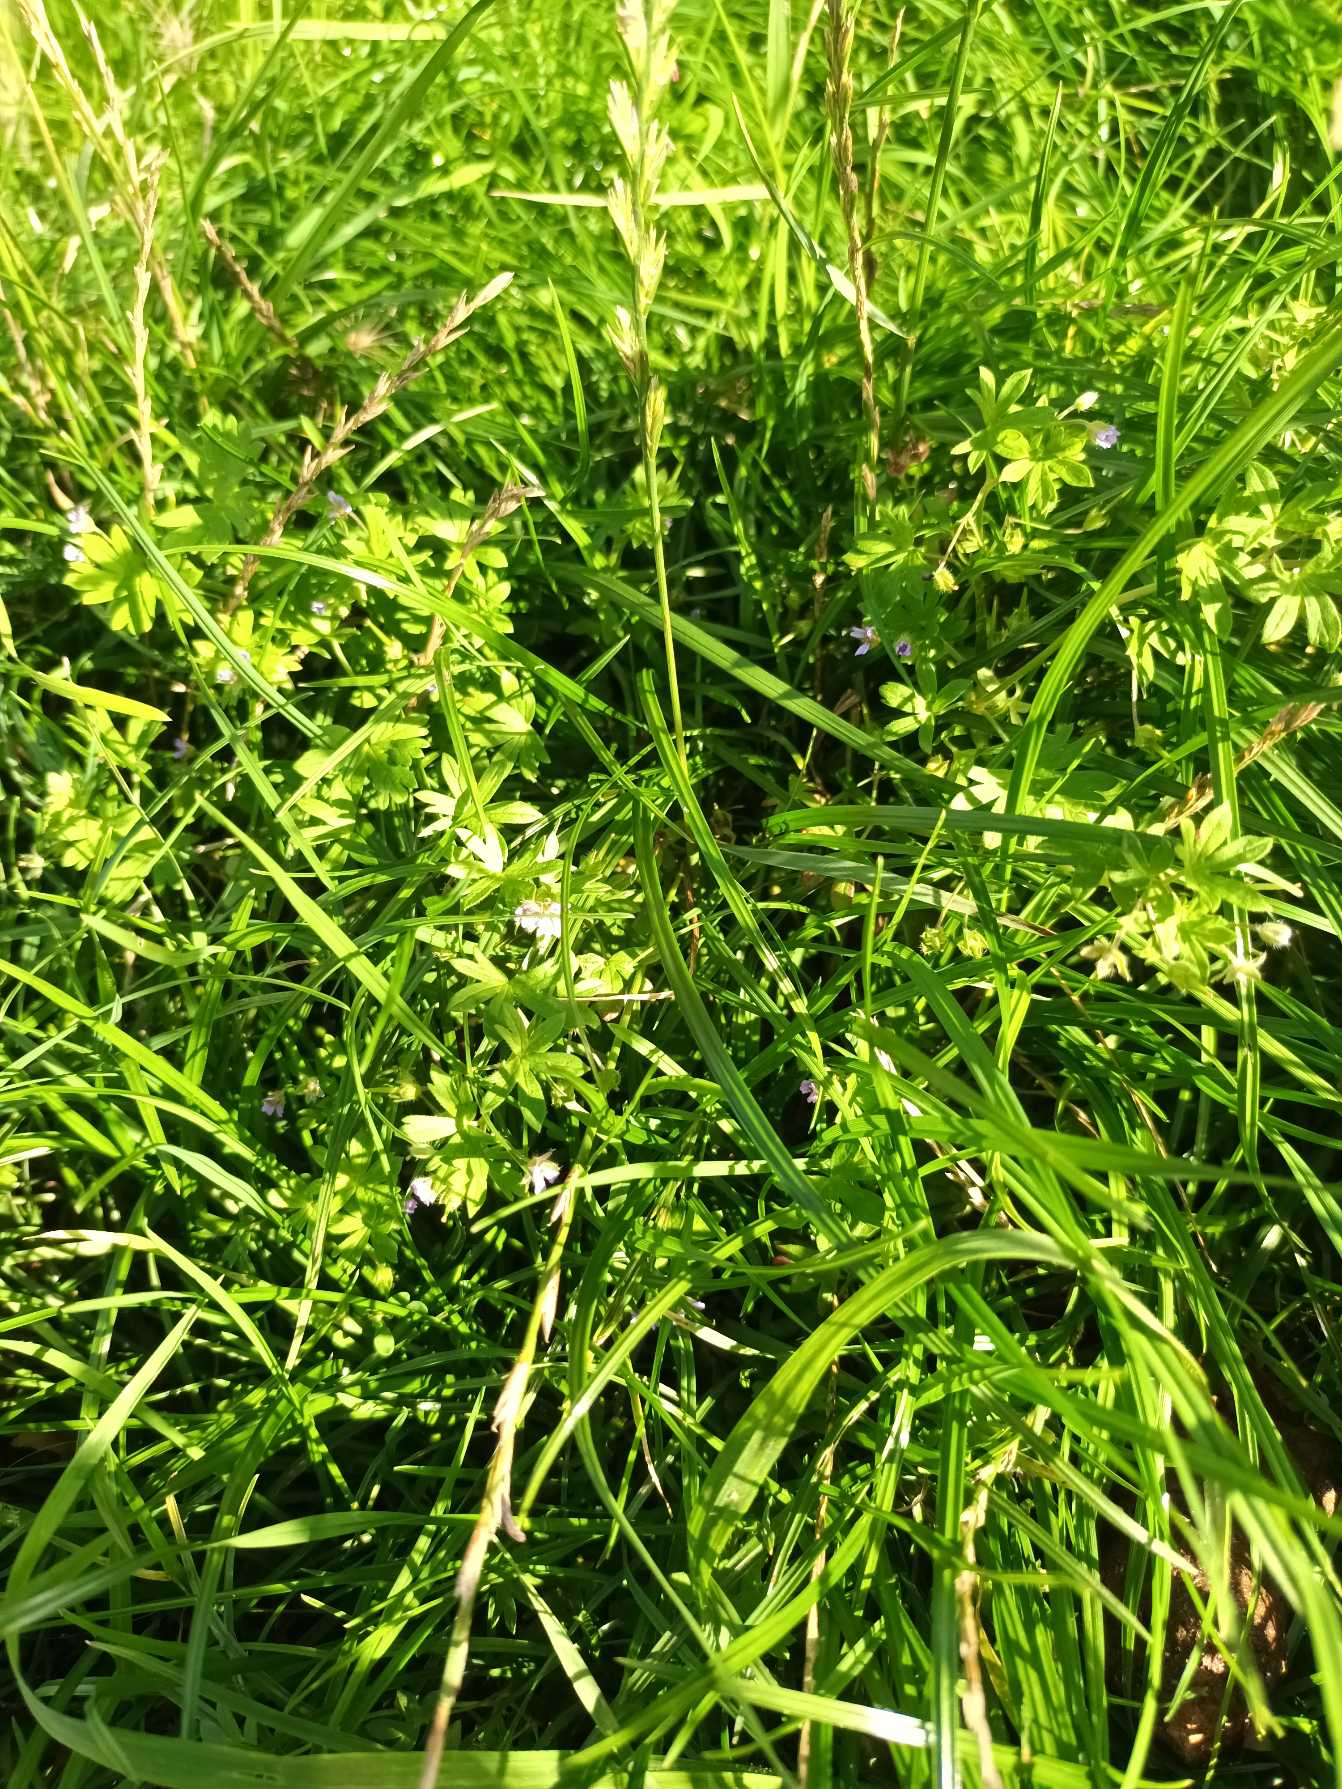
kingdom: Plantae
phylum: Tracheophyta
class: Magnoliopsida
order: Geraniales
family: Geraniaceae
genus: Geranium
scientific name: Geranium pusillum
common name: Liden storkenæb
